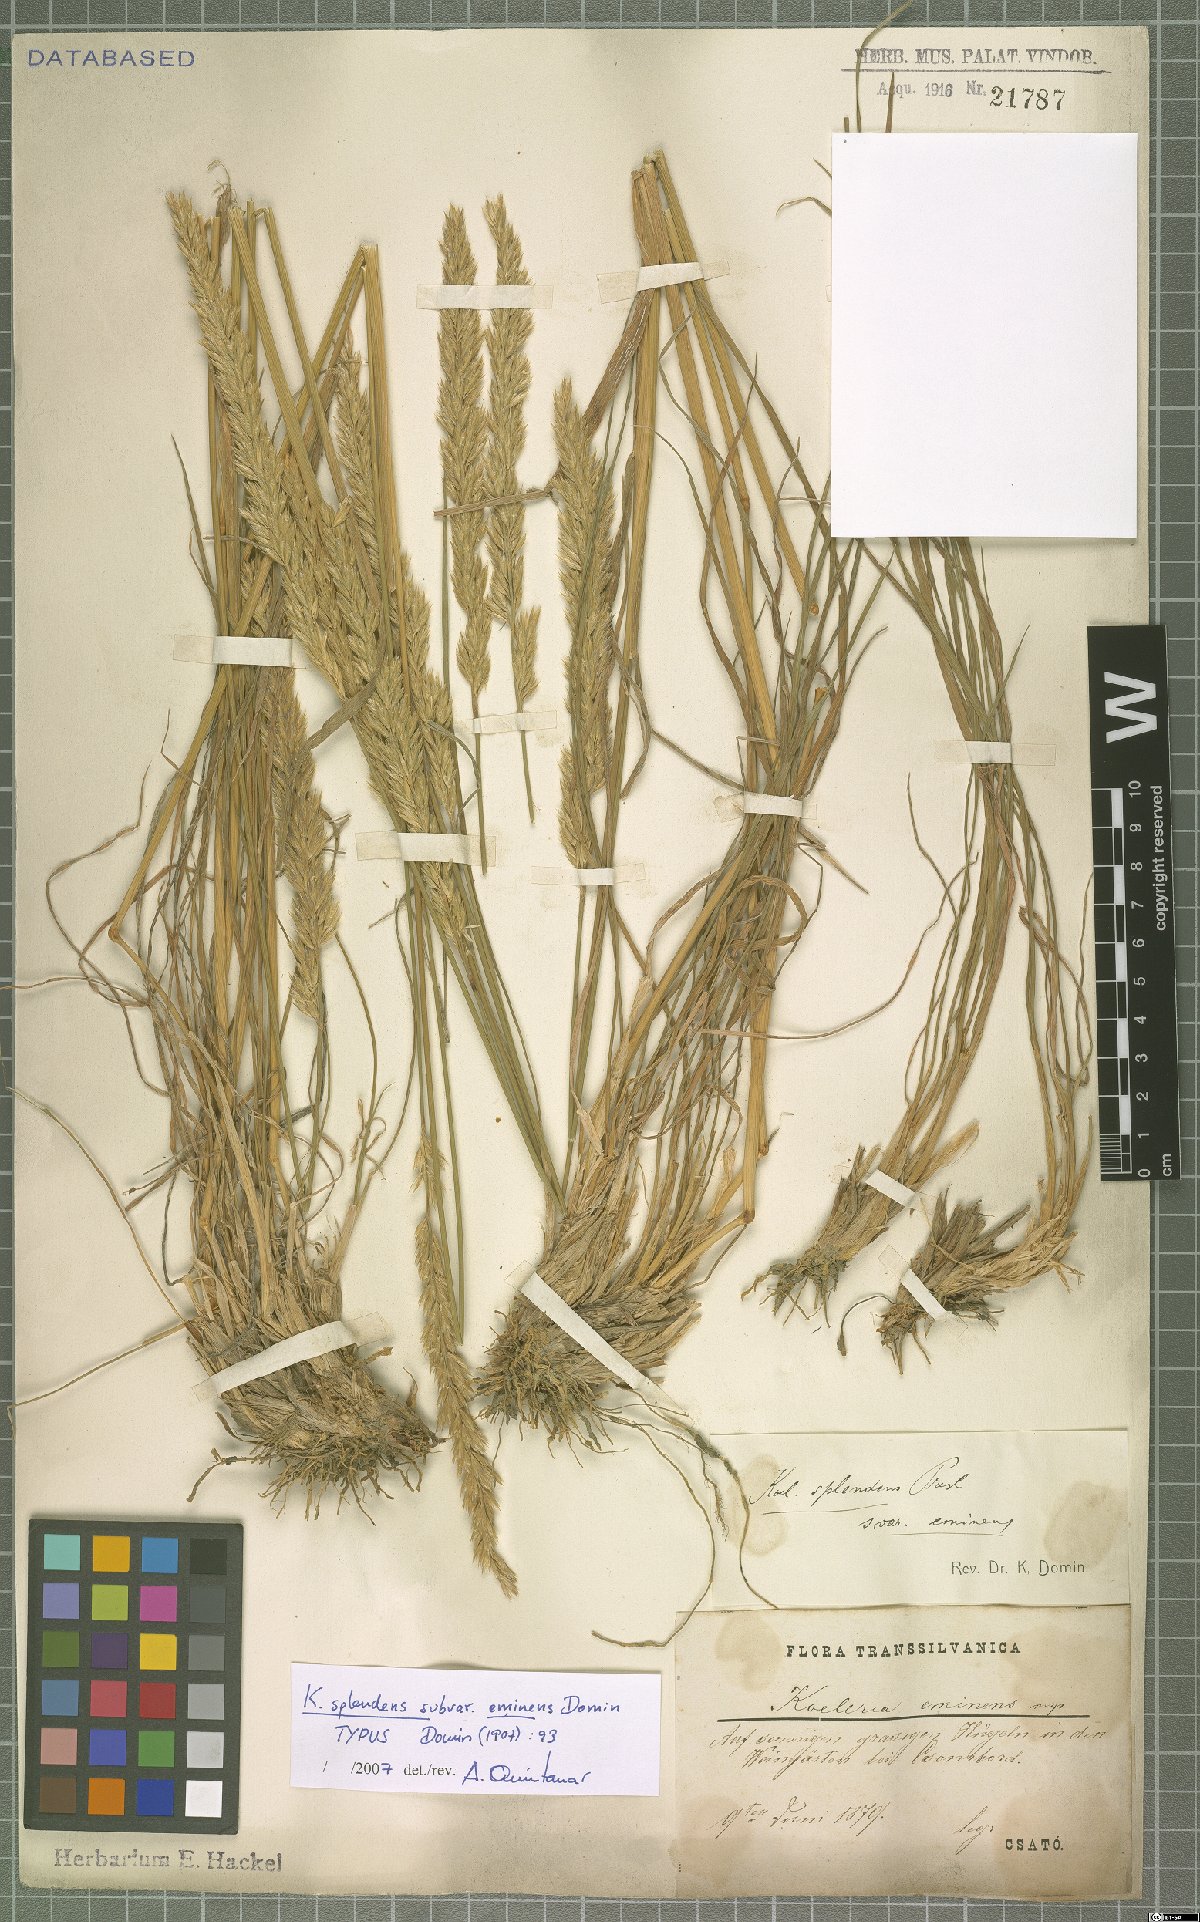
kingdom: Plantae
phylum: Tracheophyta
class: Liliopsida
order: Poales
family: Poaceae
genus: Koeleria
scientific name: Koeleria splendens
